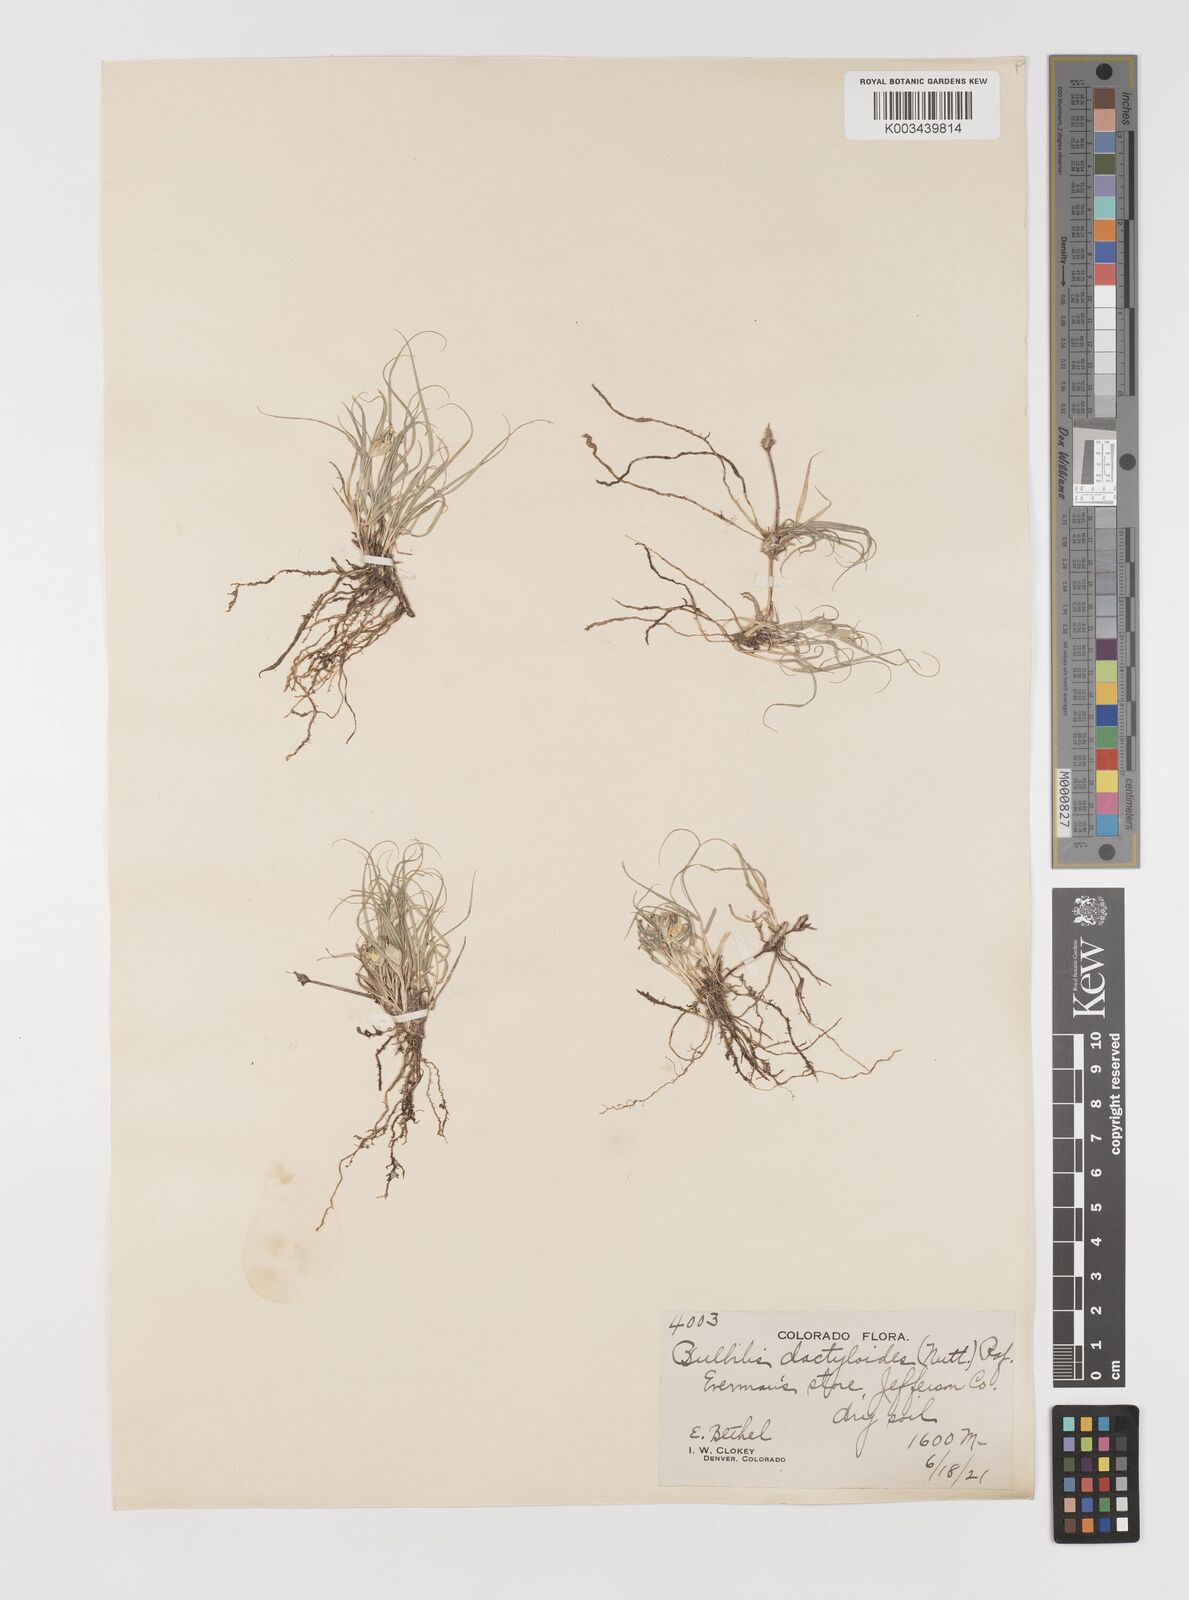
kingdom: Plantae
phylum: Tracheophyta
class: Liliopsida
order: Poales
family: Poaceae
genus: Bouteloua
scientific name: Bouteloua dactyloides
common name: Buffalo grass
